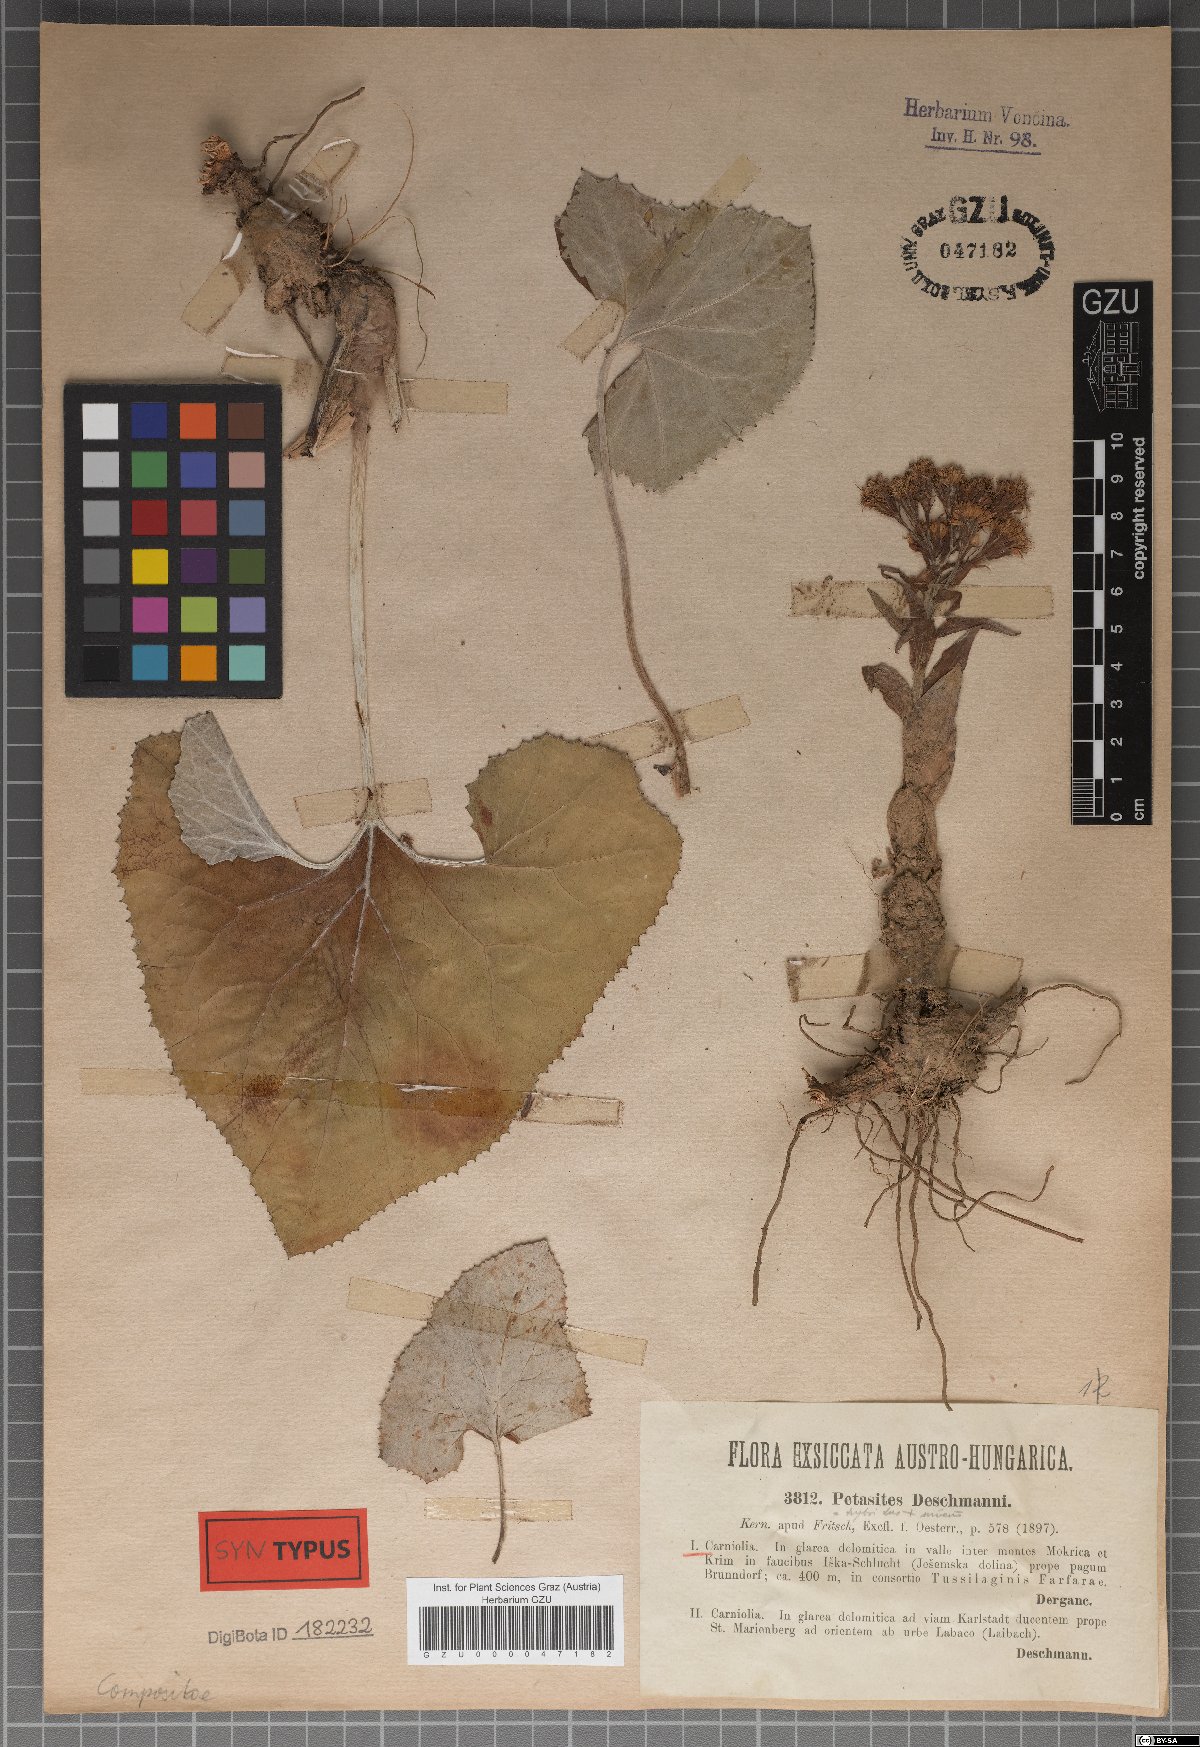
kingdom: Plantae
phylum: Tracheophyta
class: Magnoliopsida
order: Asterales
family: Asteraceae
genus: Petasites
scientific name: Petasites deschmannii
